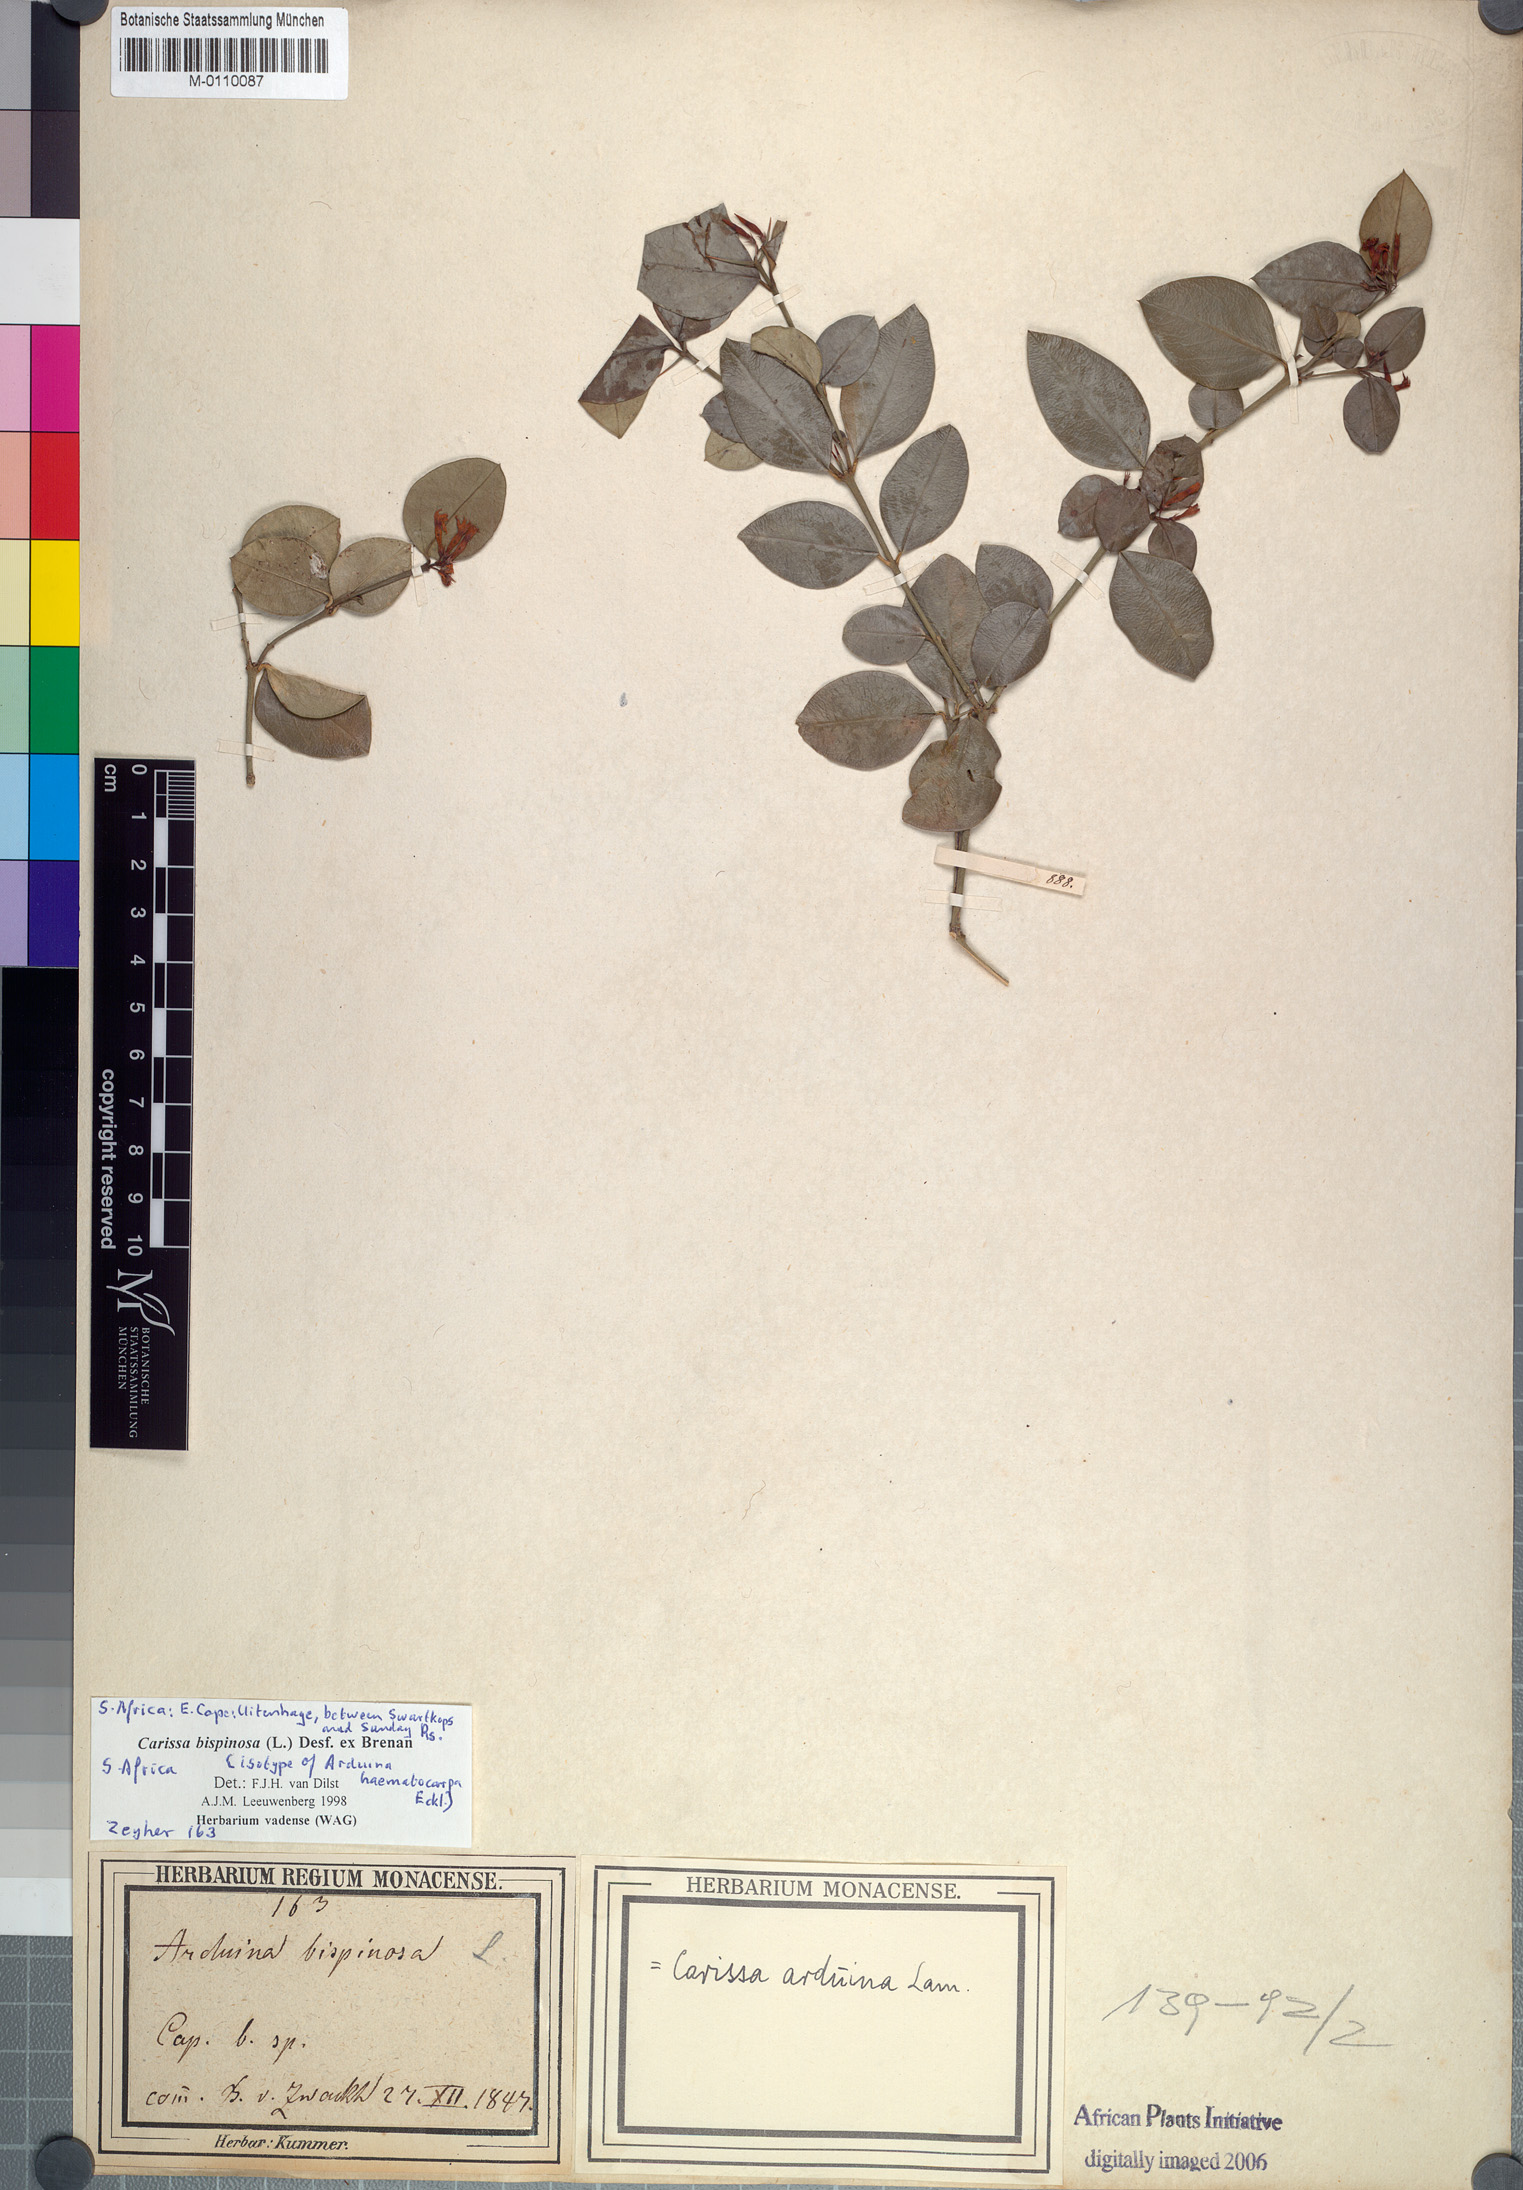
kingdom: Plantae
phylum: Tracheophyta
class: Magnoliopsida
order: Gentianales
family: Apocynaceae
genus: Carissa
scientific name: Carissa bispinosa
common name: Forest num-num
